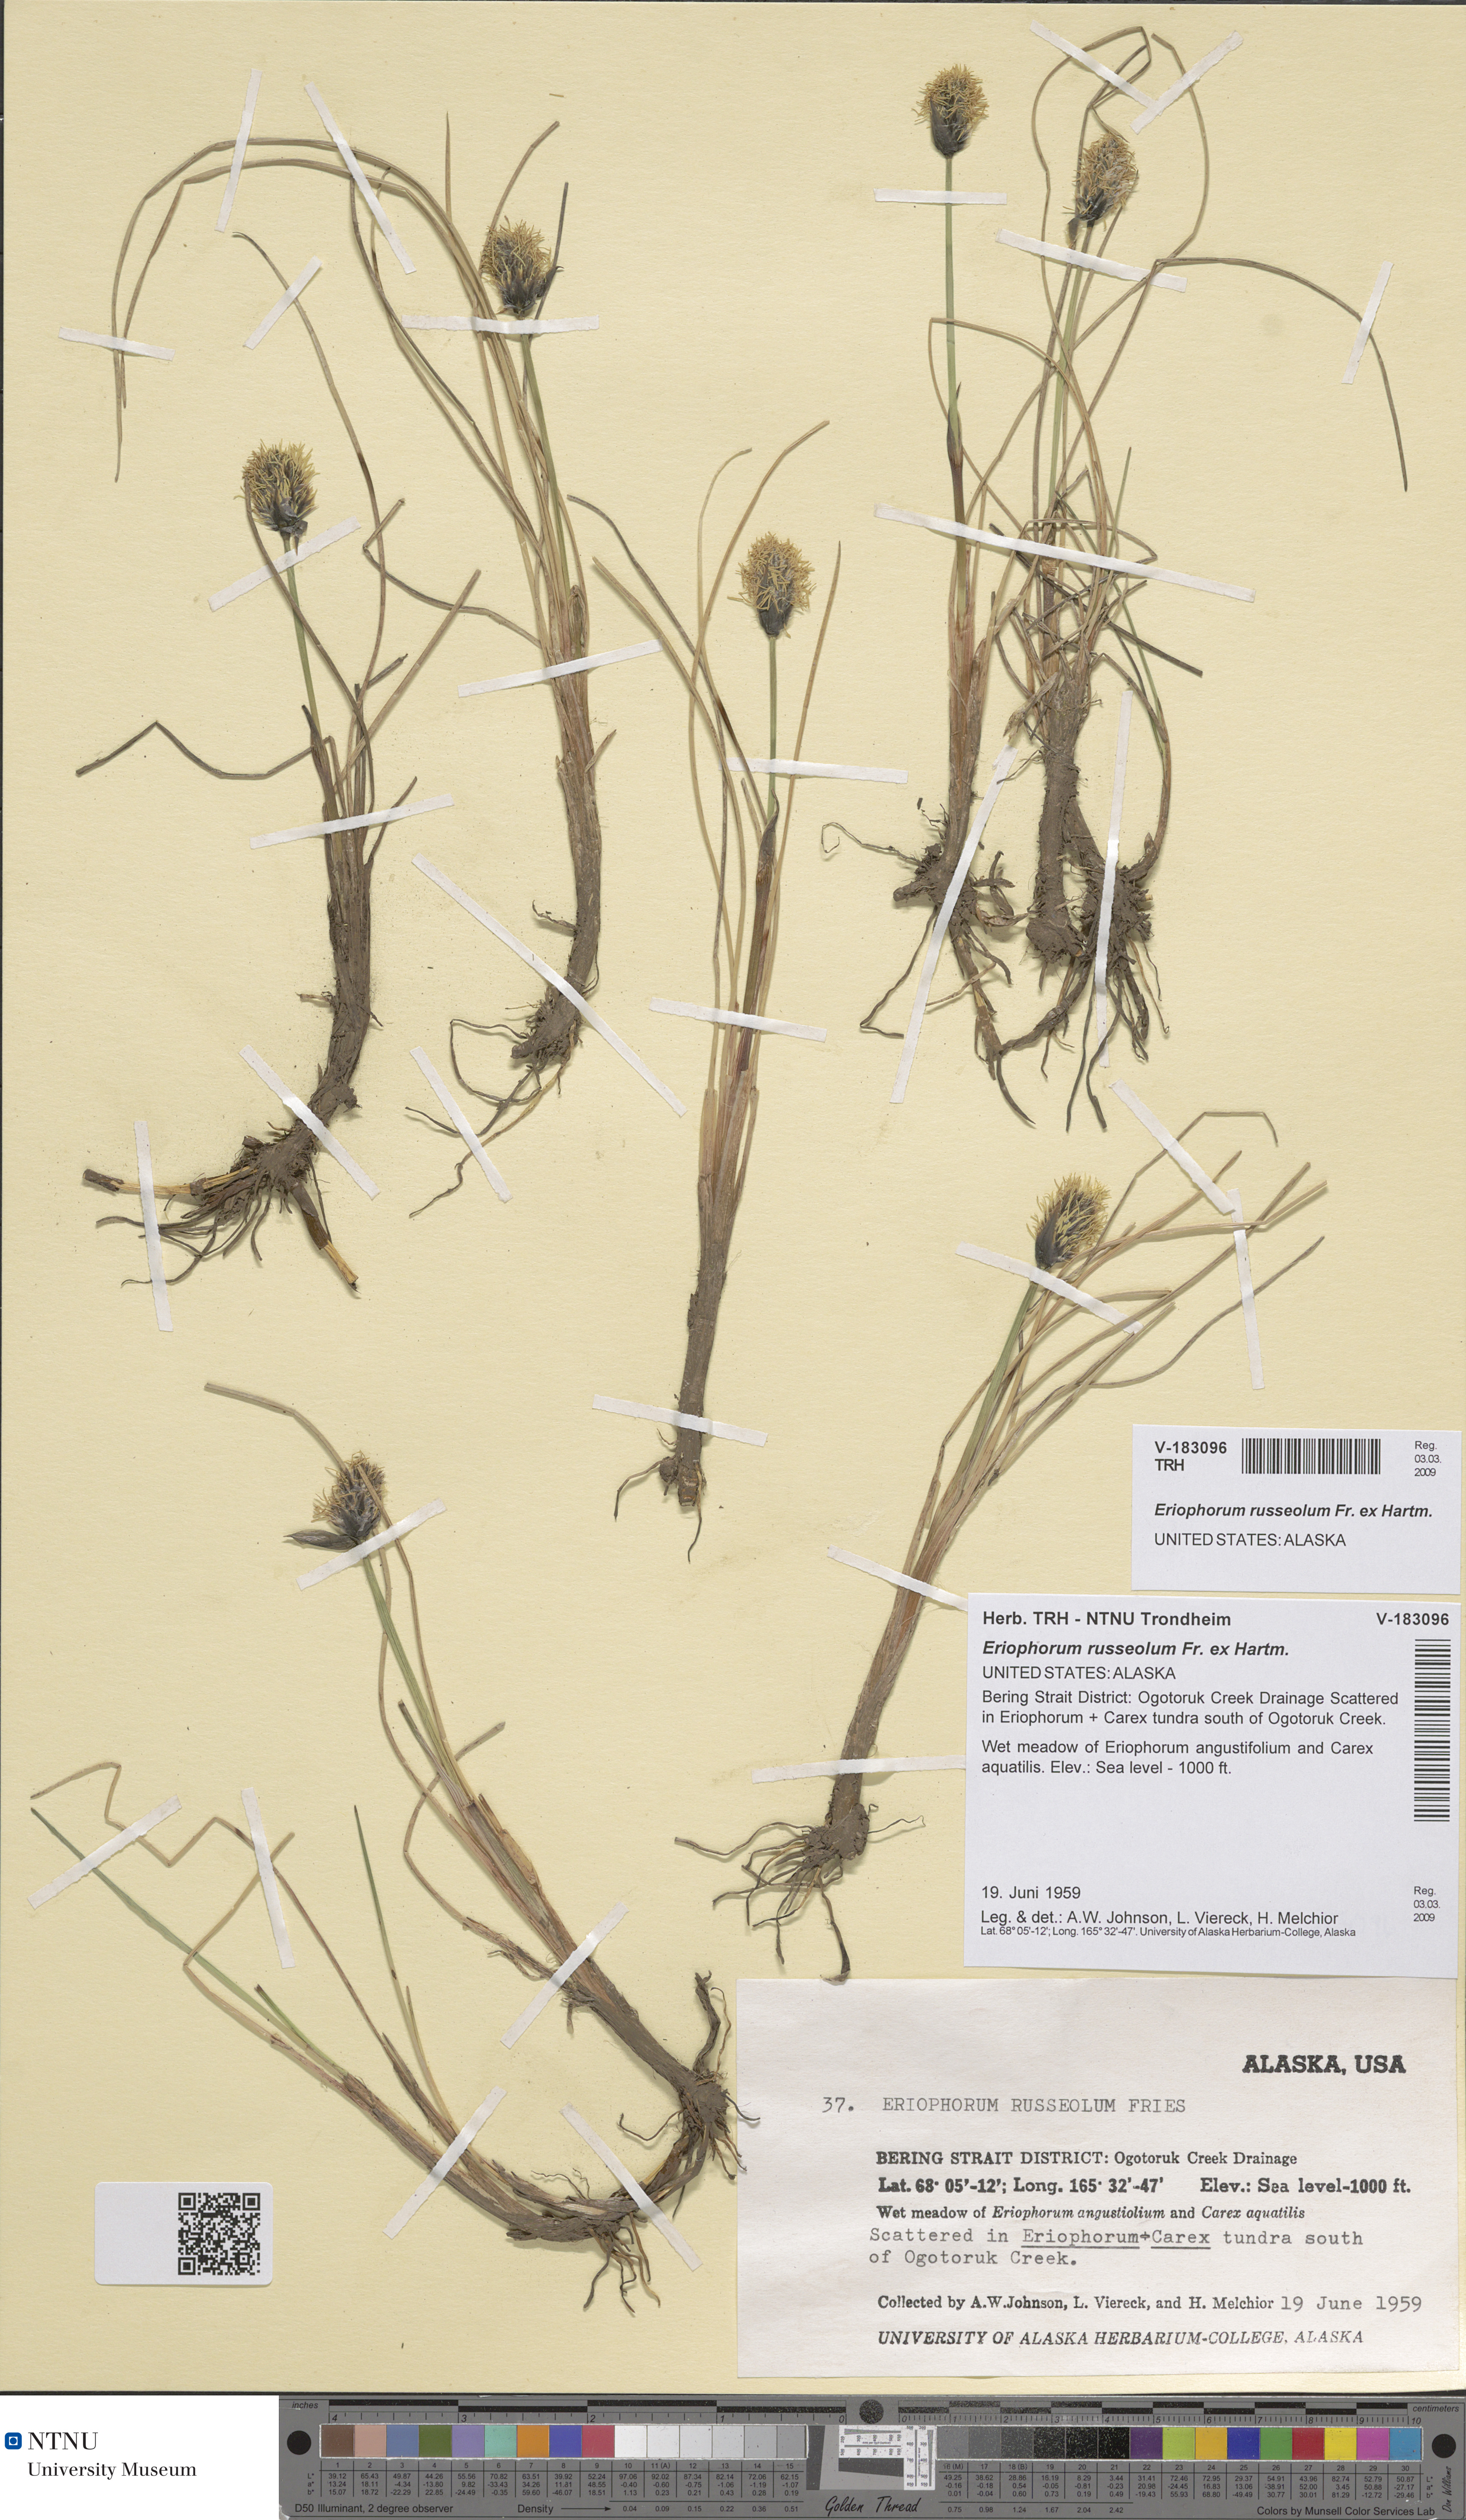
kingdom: Plantae
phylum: Tracheophyta
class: Liliopsida
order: Poales
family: Cyperaceae
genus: Eriophorum
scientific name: Eriophorum russeolum
